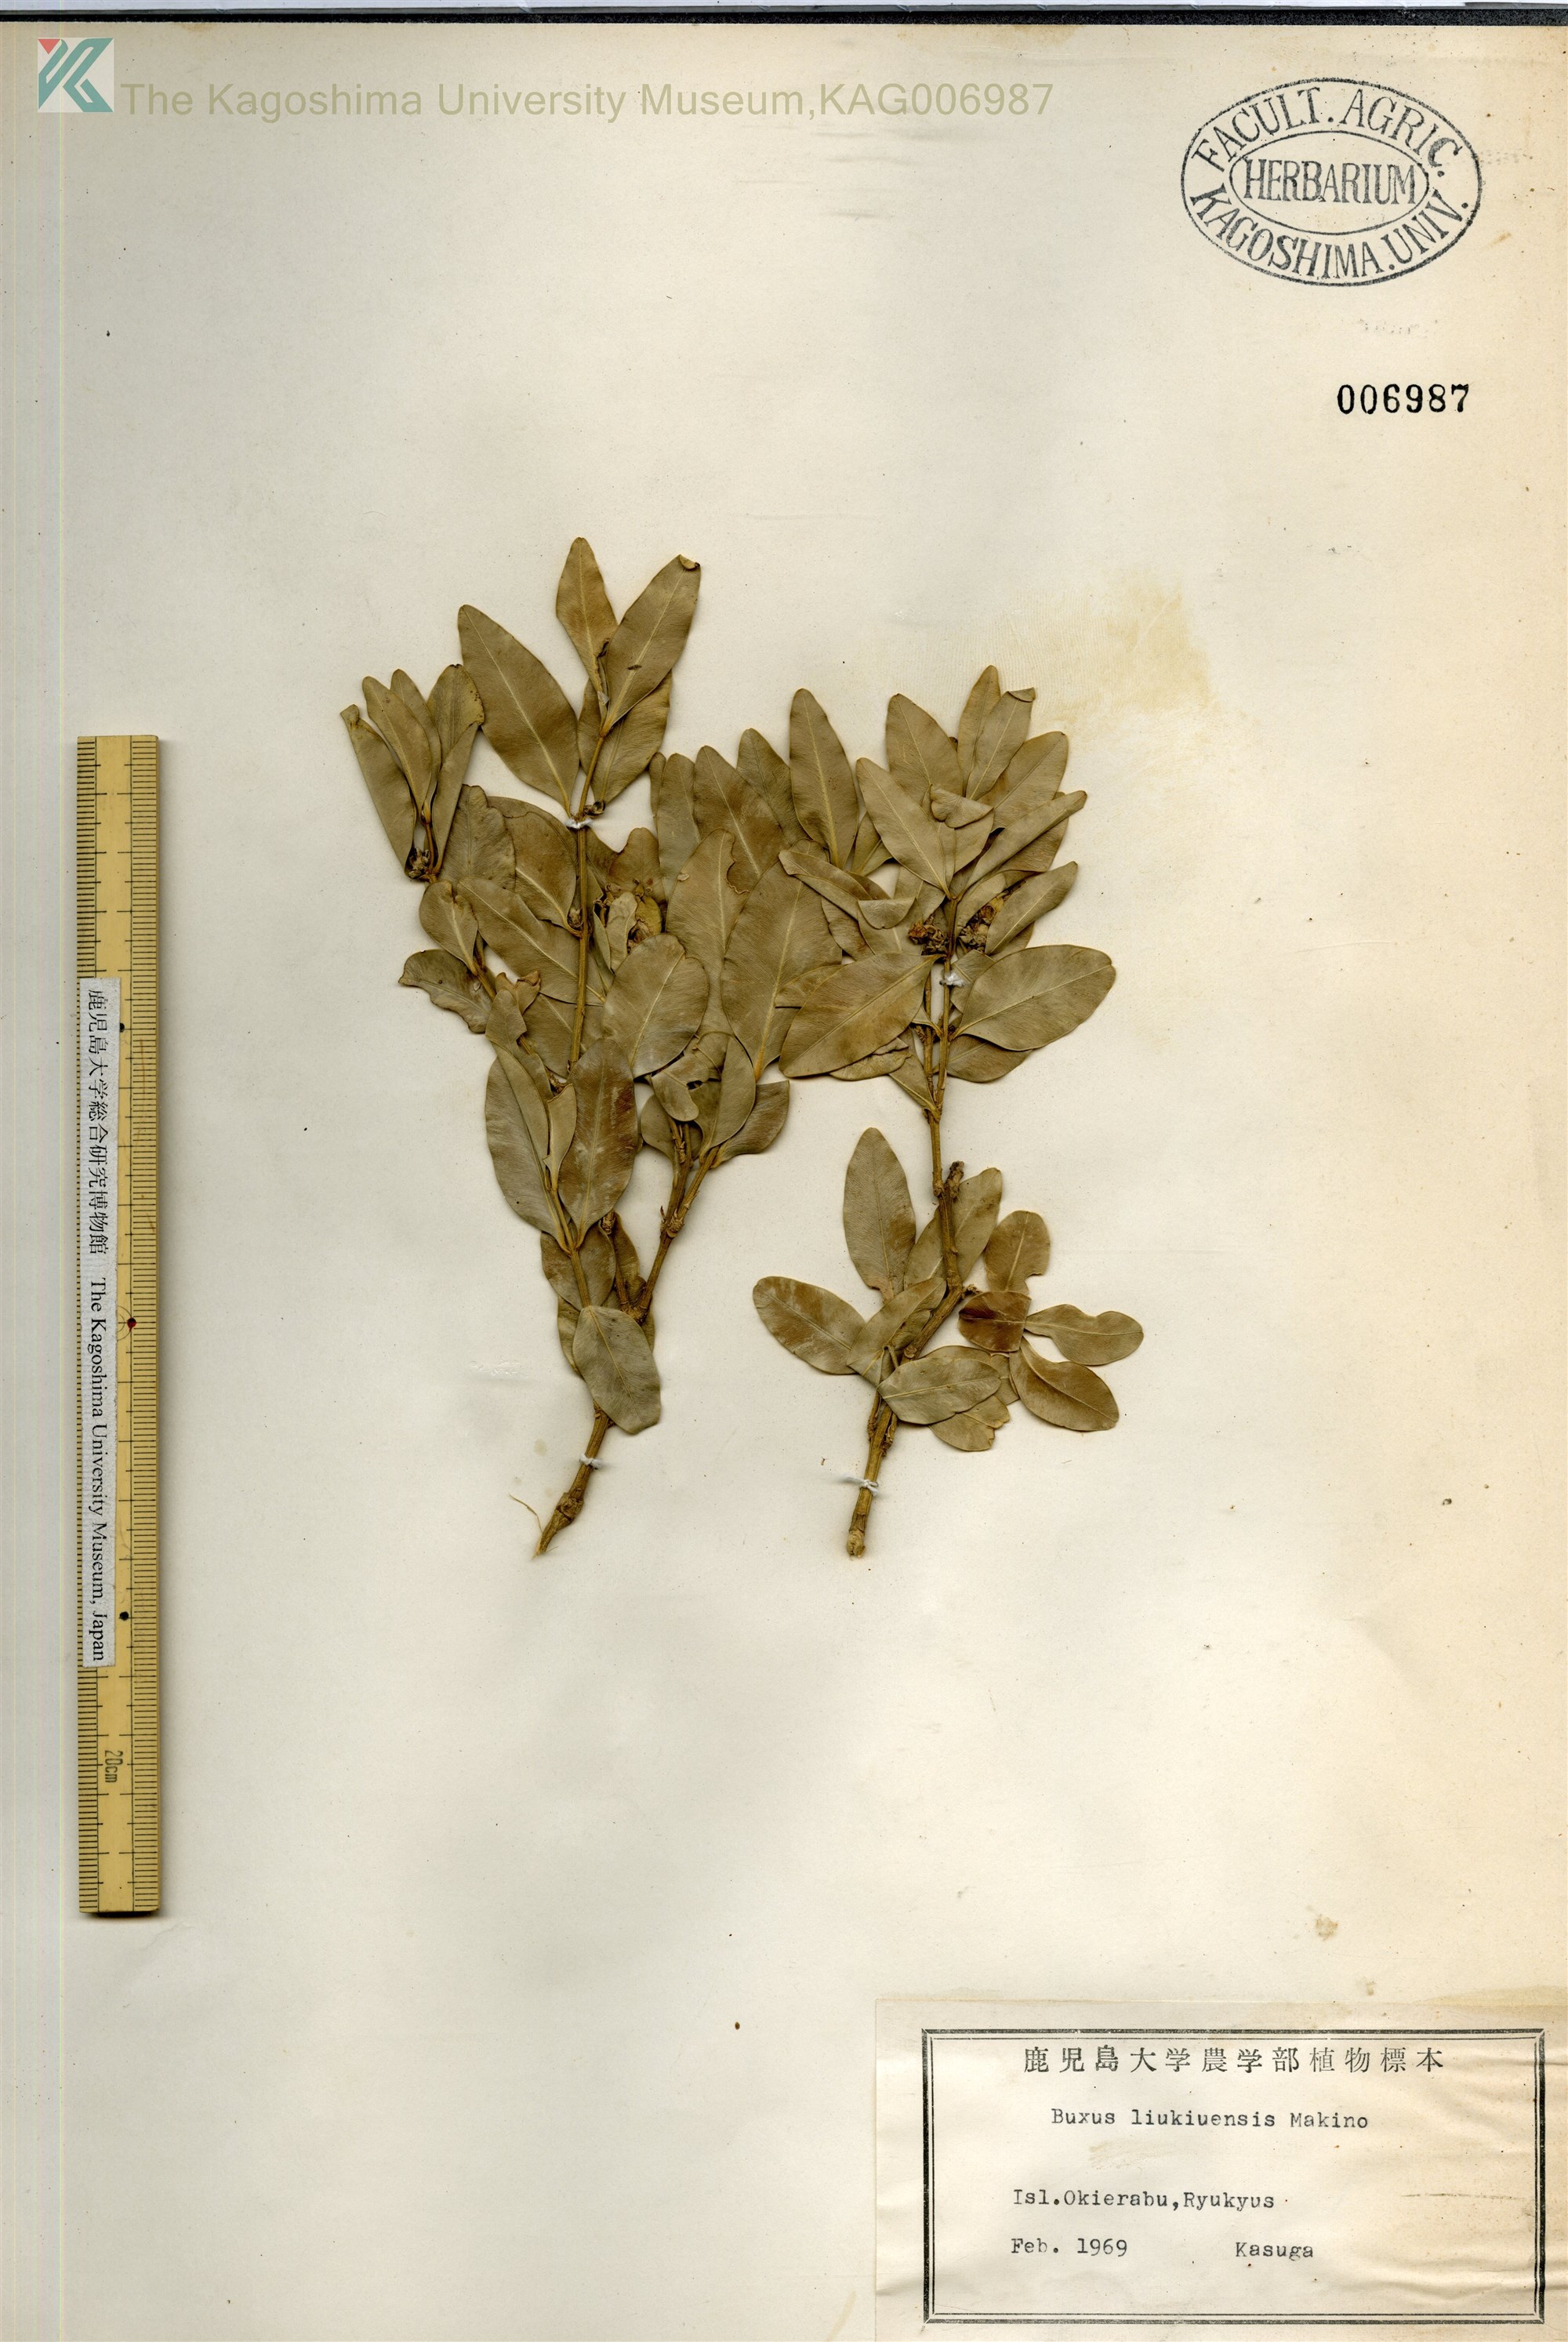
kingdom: Plantae
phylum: Tracheophyta
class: Magnoliopsida
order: Buxales
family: Buxaceae
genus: Buxus
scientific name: Buxus liukiuensis
